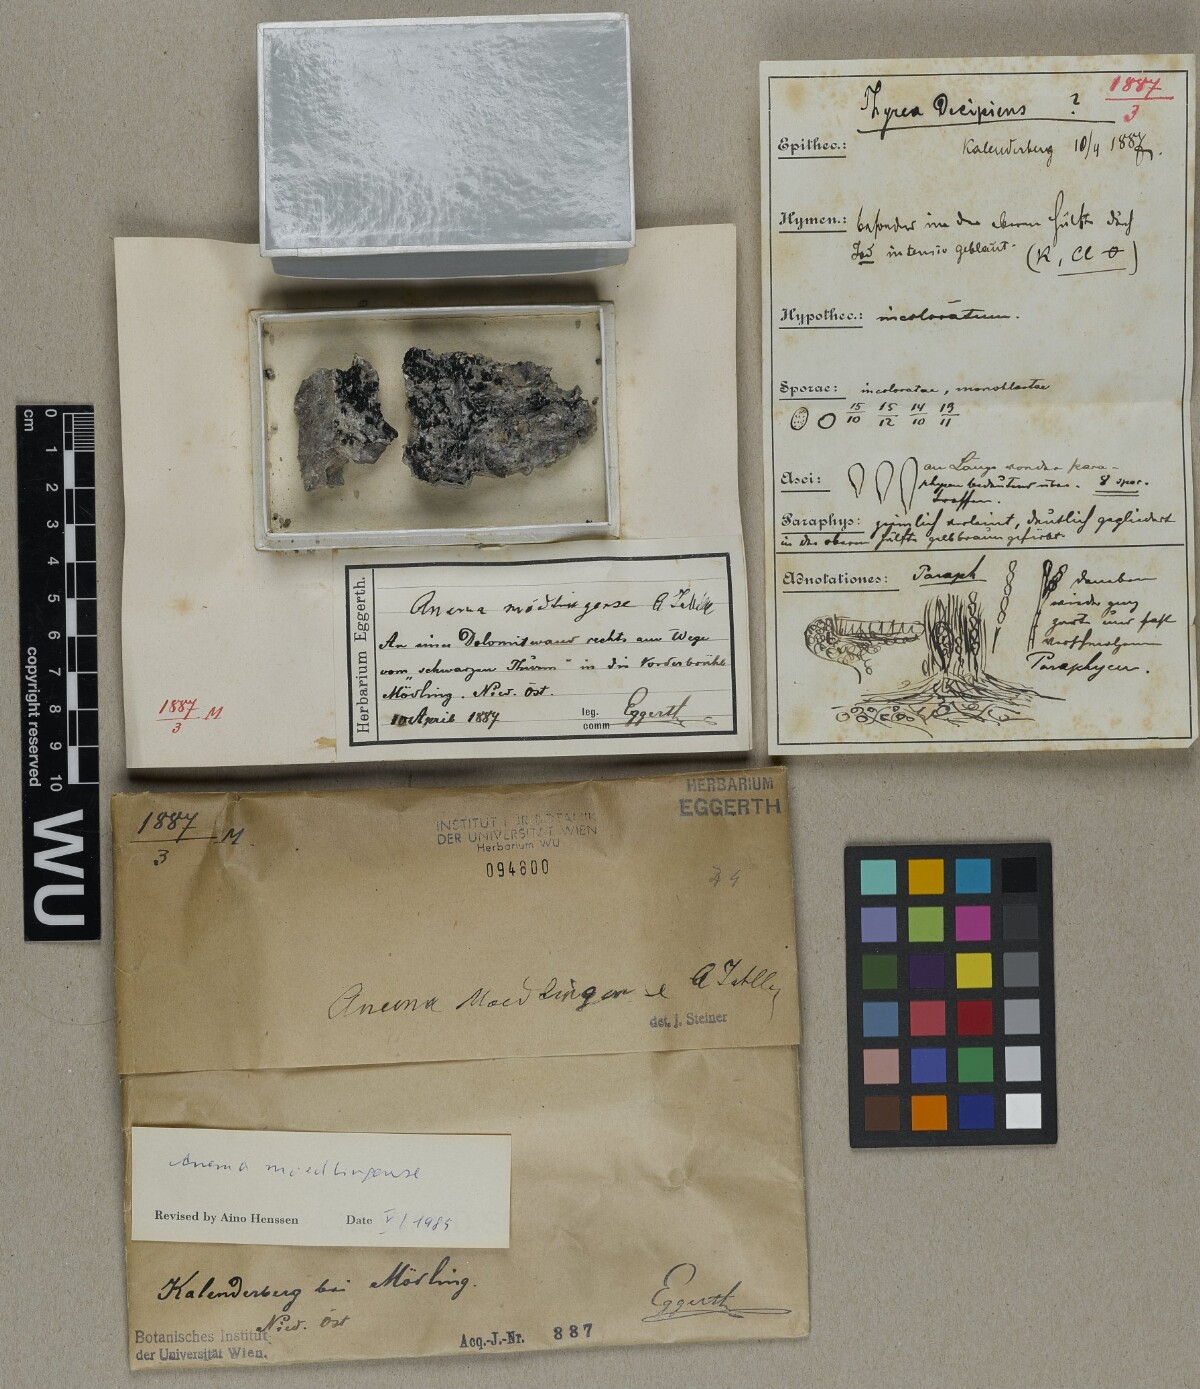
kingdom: Fungi
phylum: Ascomycota
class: Lichinomycetes
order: Lichinales
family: Lichinaceae
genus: Anema
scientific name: Anema moedlingense
